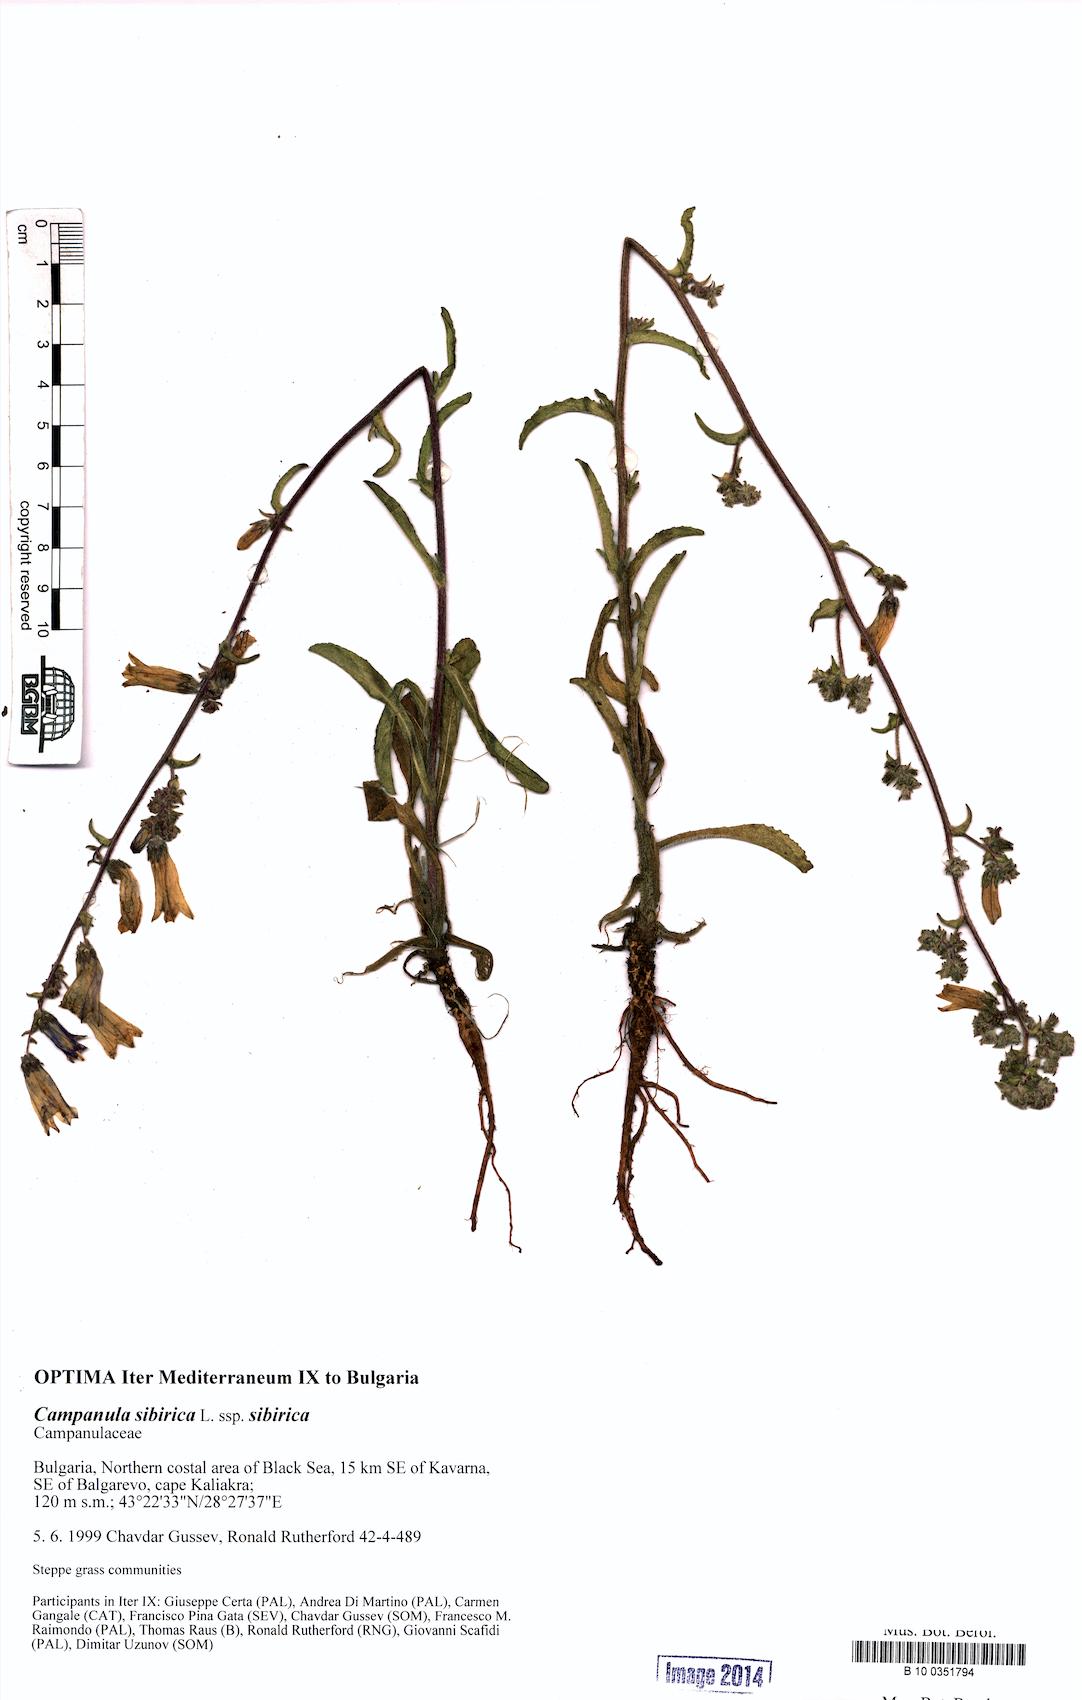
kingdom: Plantae
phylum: Tracheophyta
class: Magnoliopsida
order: Asterales
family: Campanulaceae
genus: Campanula
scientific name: Campanula sibirica
